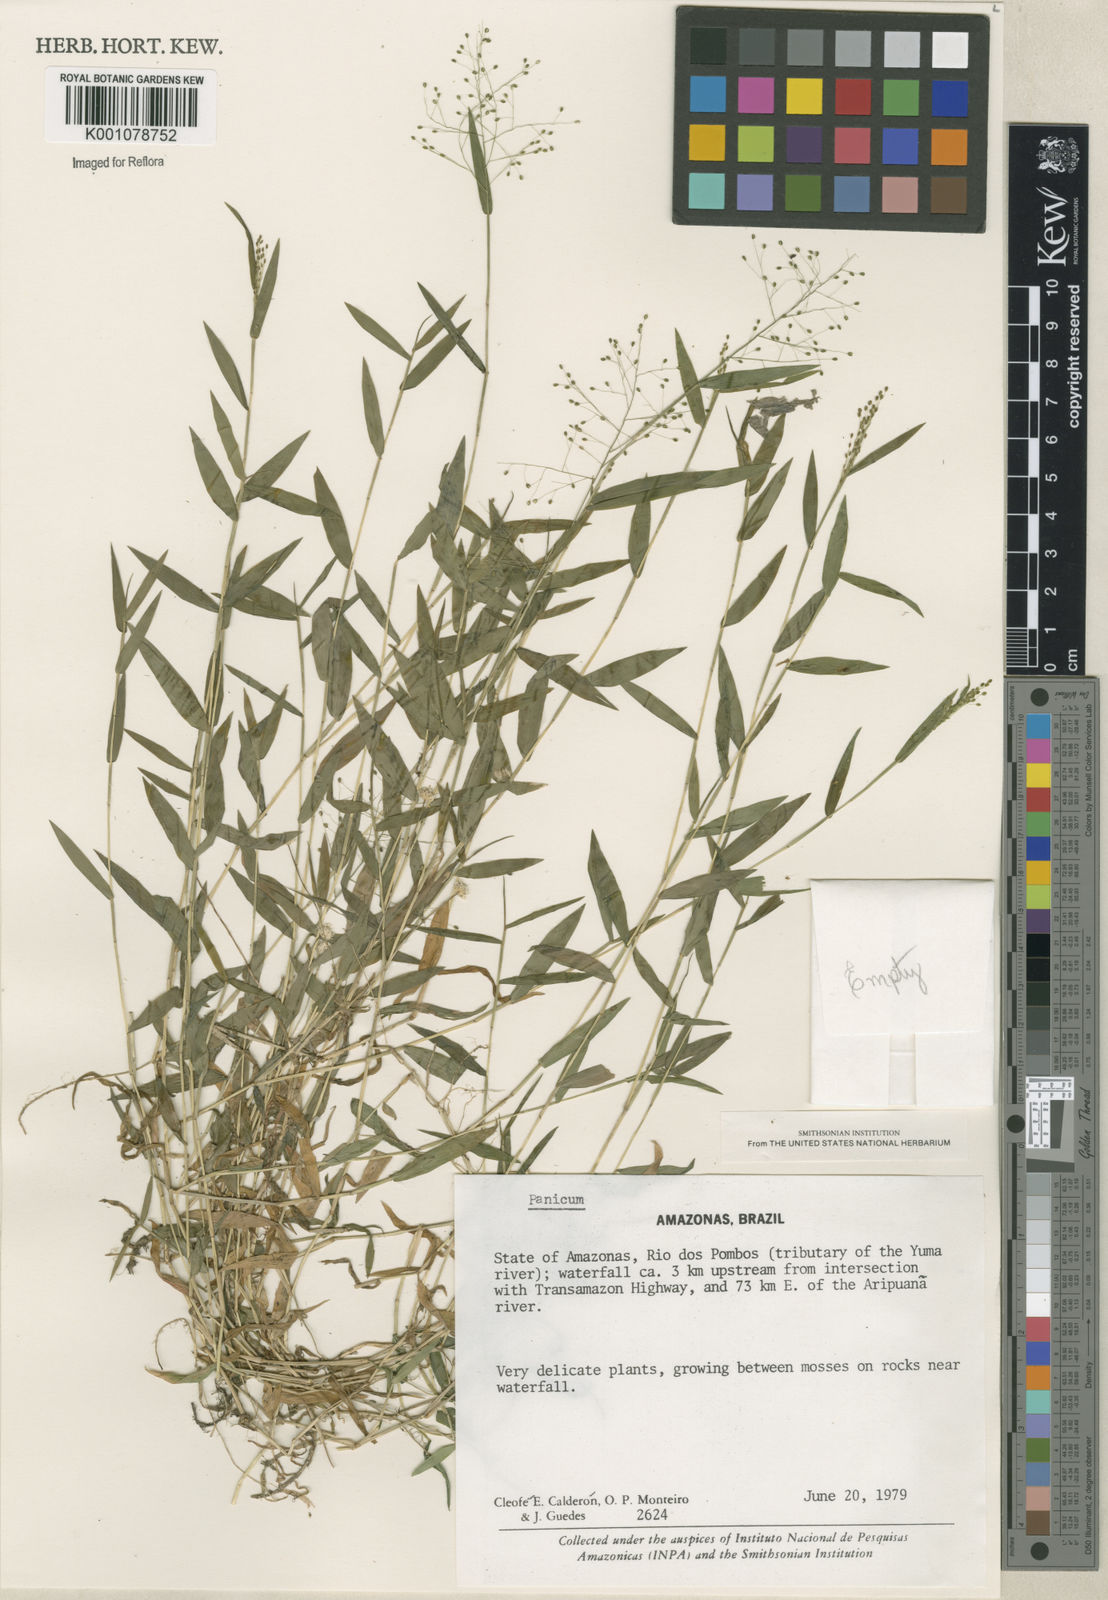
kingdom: Plantae
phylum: Tracheophyta
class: Liliopsida
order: Poales
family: Poaceae
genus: Panicum
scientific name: Panicum
